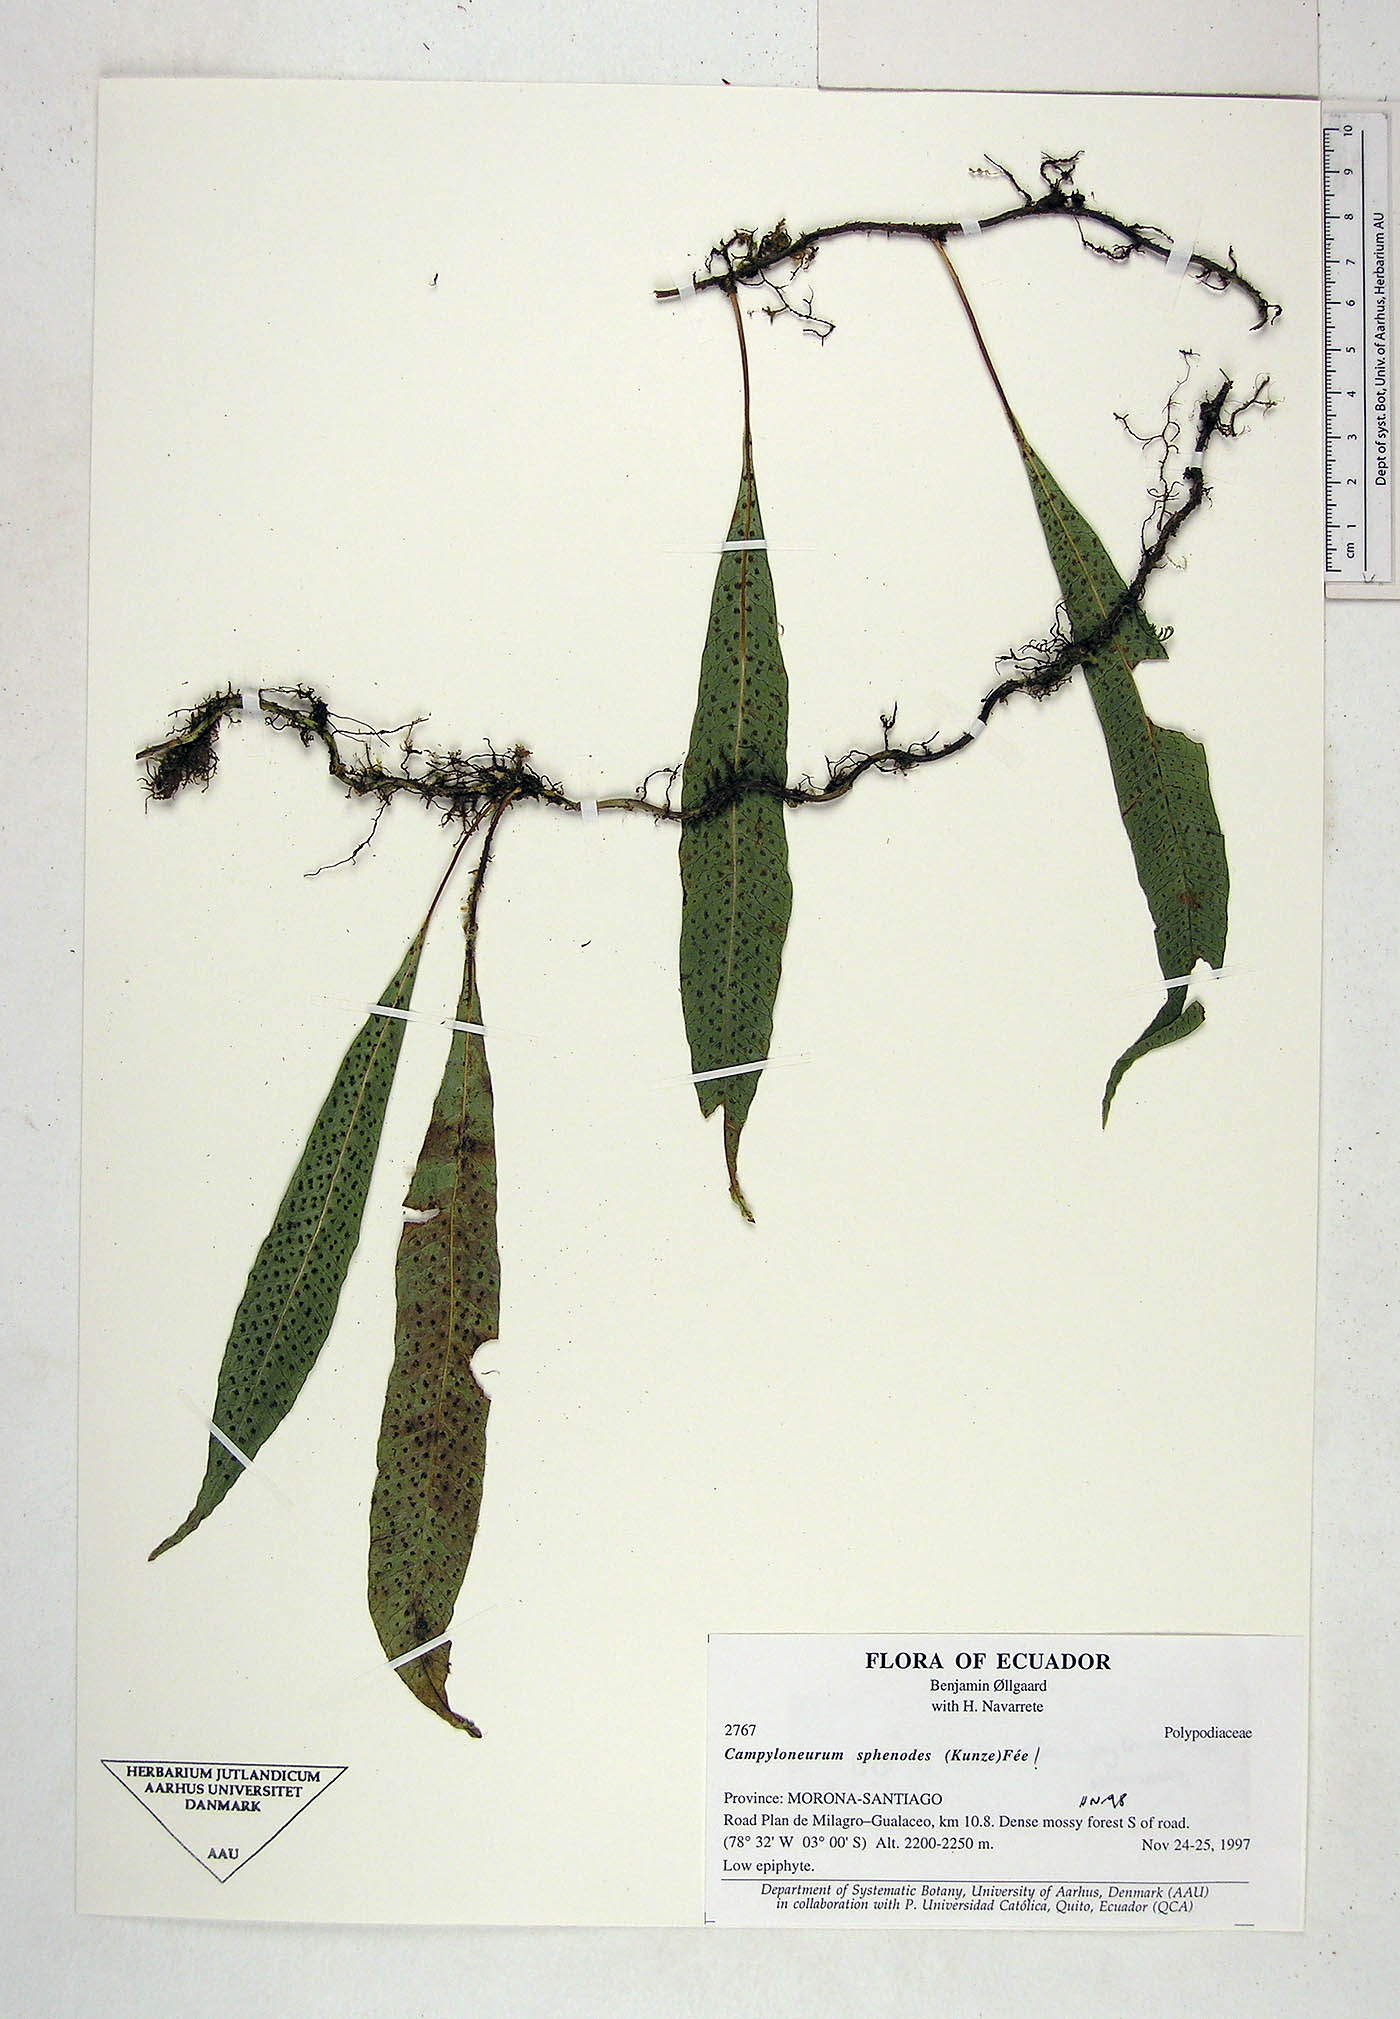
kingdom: Plantae
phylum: Tracheophyta
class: Polypodiopsida
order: Polypodiales
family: Polypodiaceae
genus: Campyloneurum
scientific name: Campyloneurum
